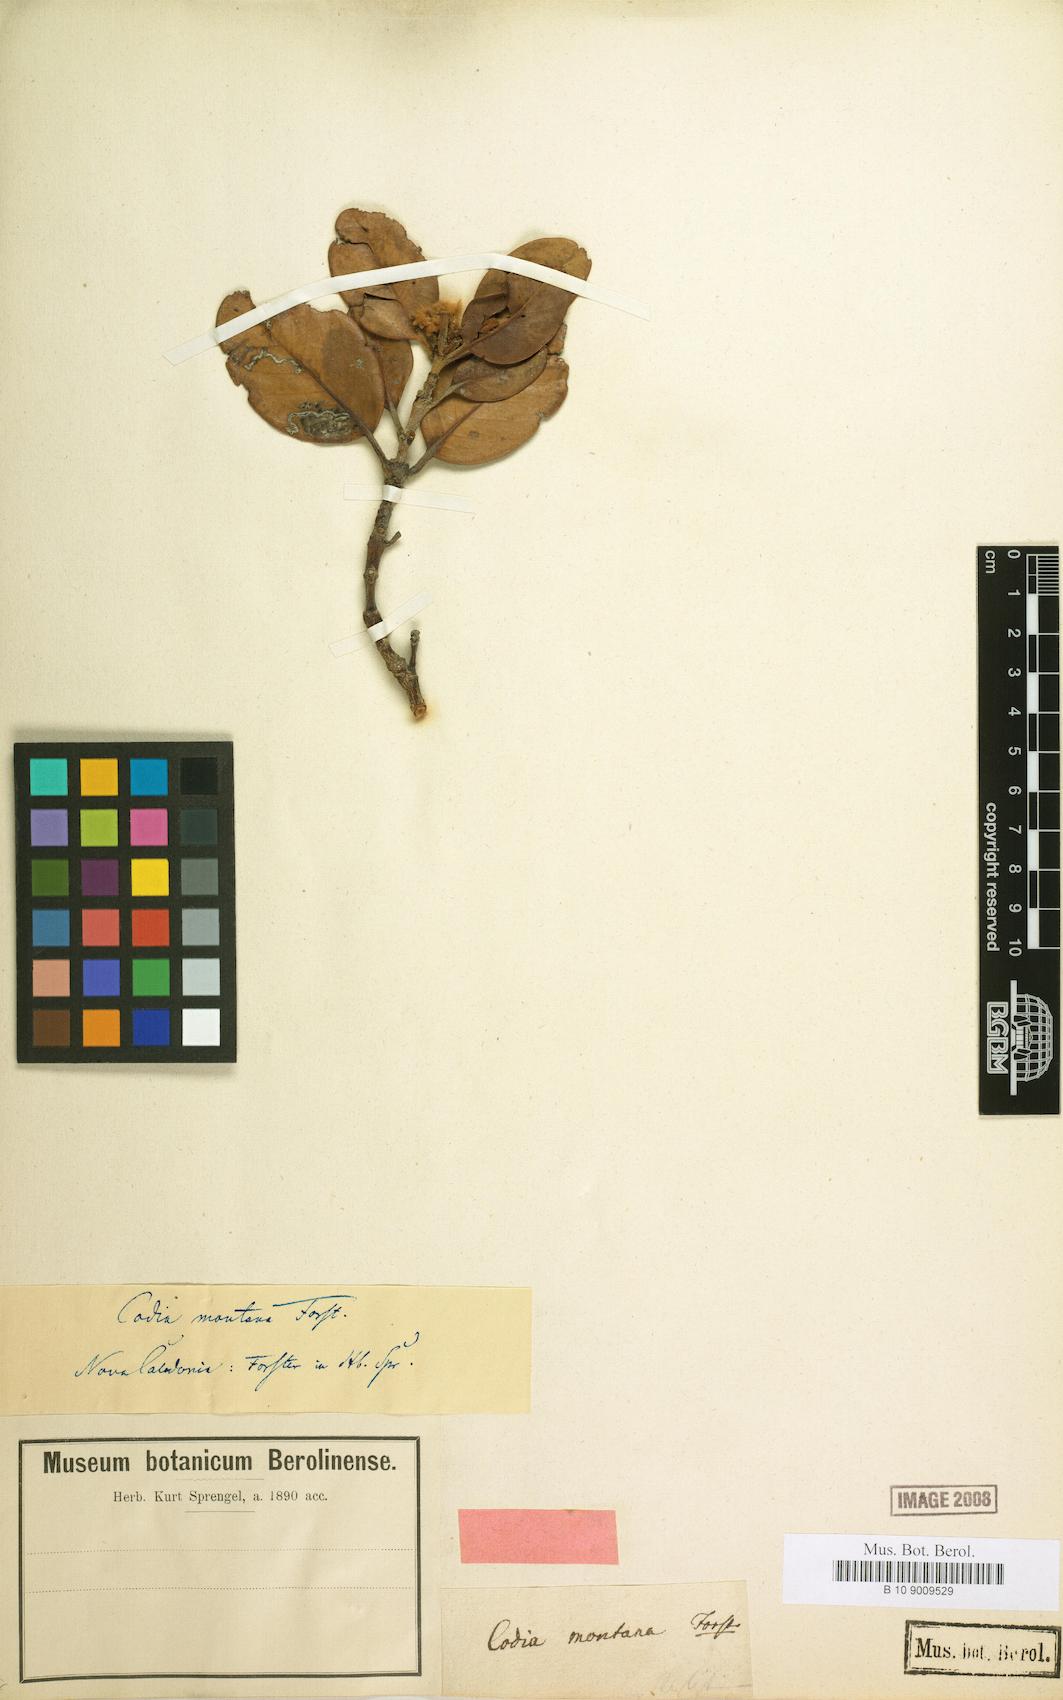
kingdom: Plantae
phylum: Tracheophyta
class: Magnoliopsida
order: Oxalidales
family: Cunoniaceae
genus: Codia
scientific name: Codia montana
